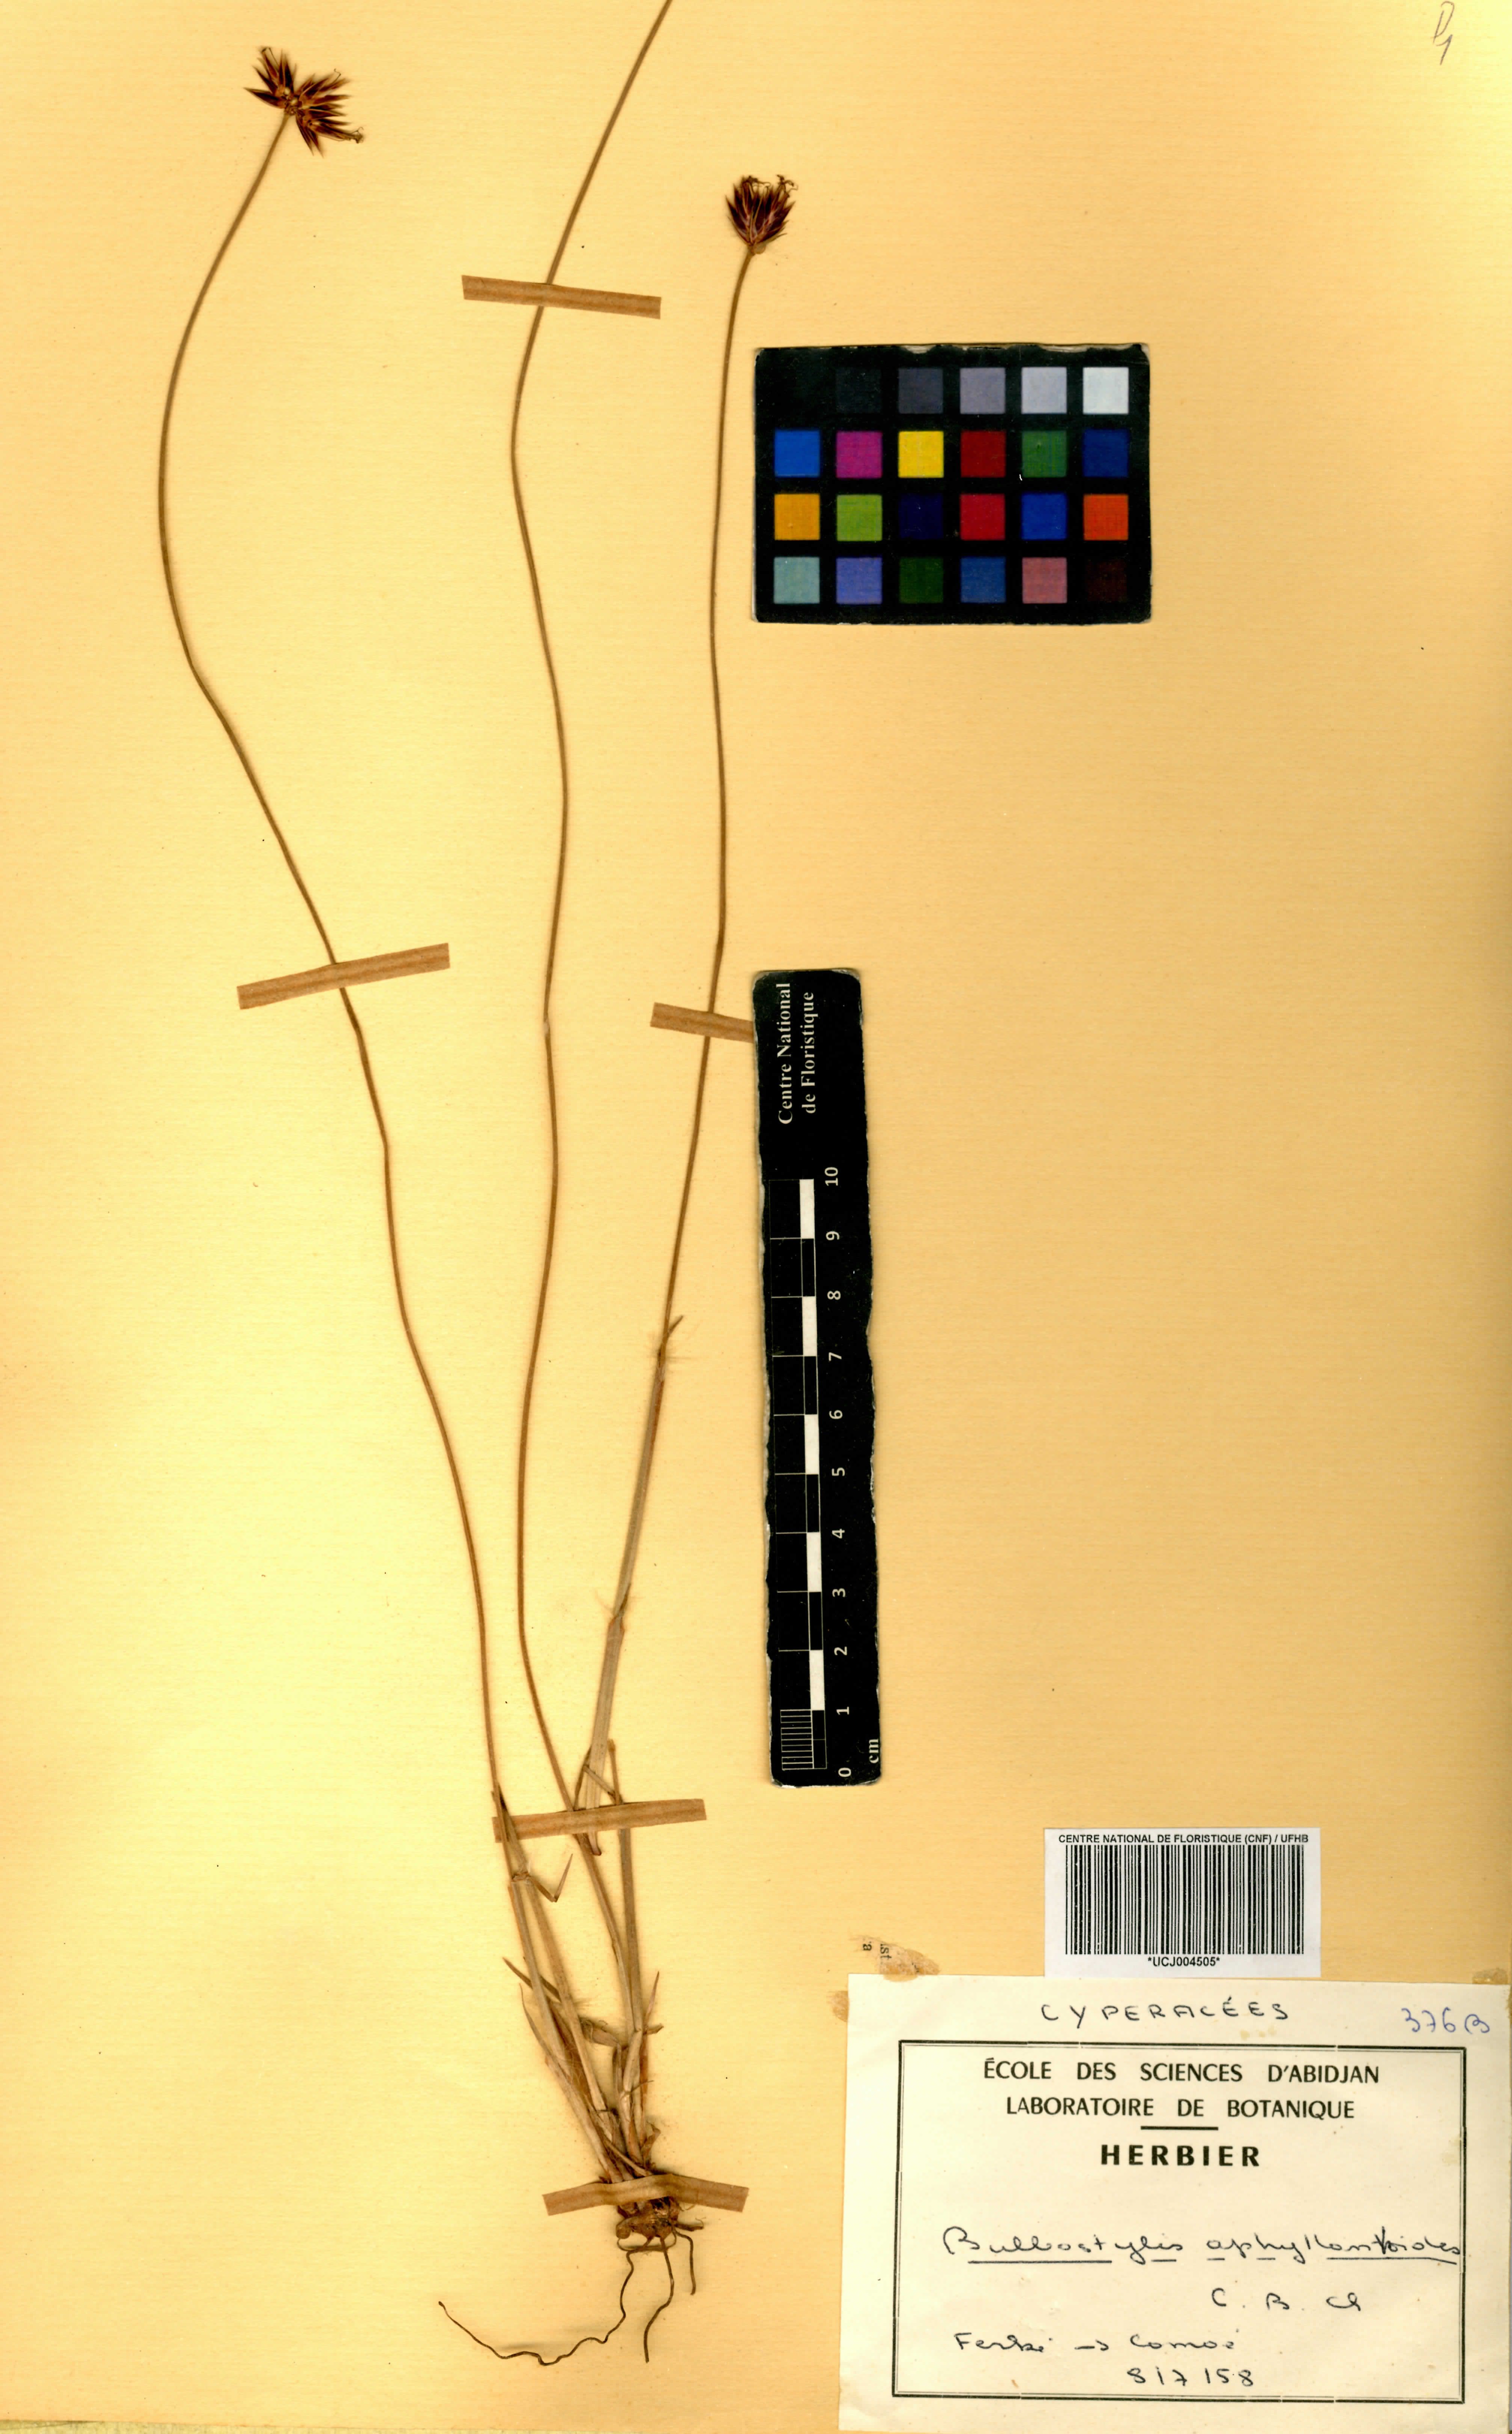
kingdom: Plantae
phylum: Tracheophyta
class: Liliopsida
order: Poales
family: Cyperaceae
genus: Bulbostylis
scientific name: Bulbostylis pilosa
